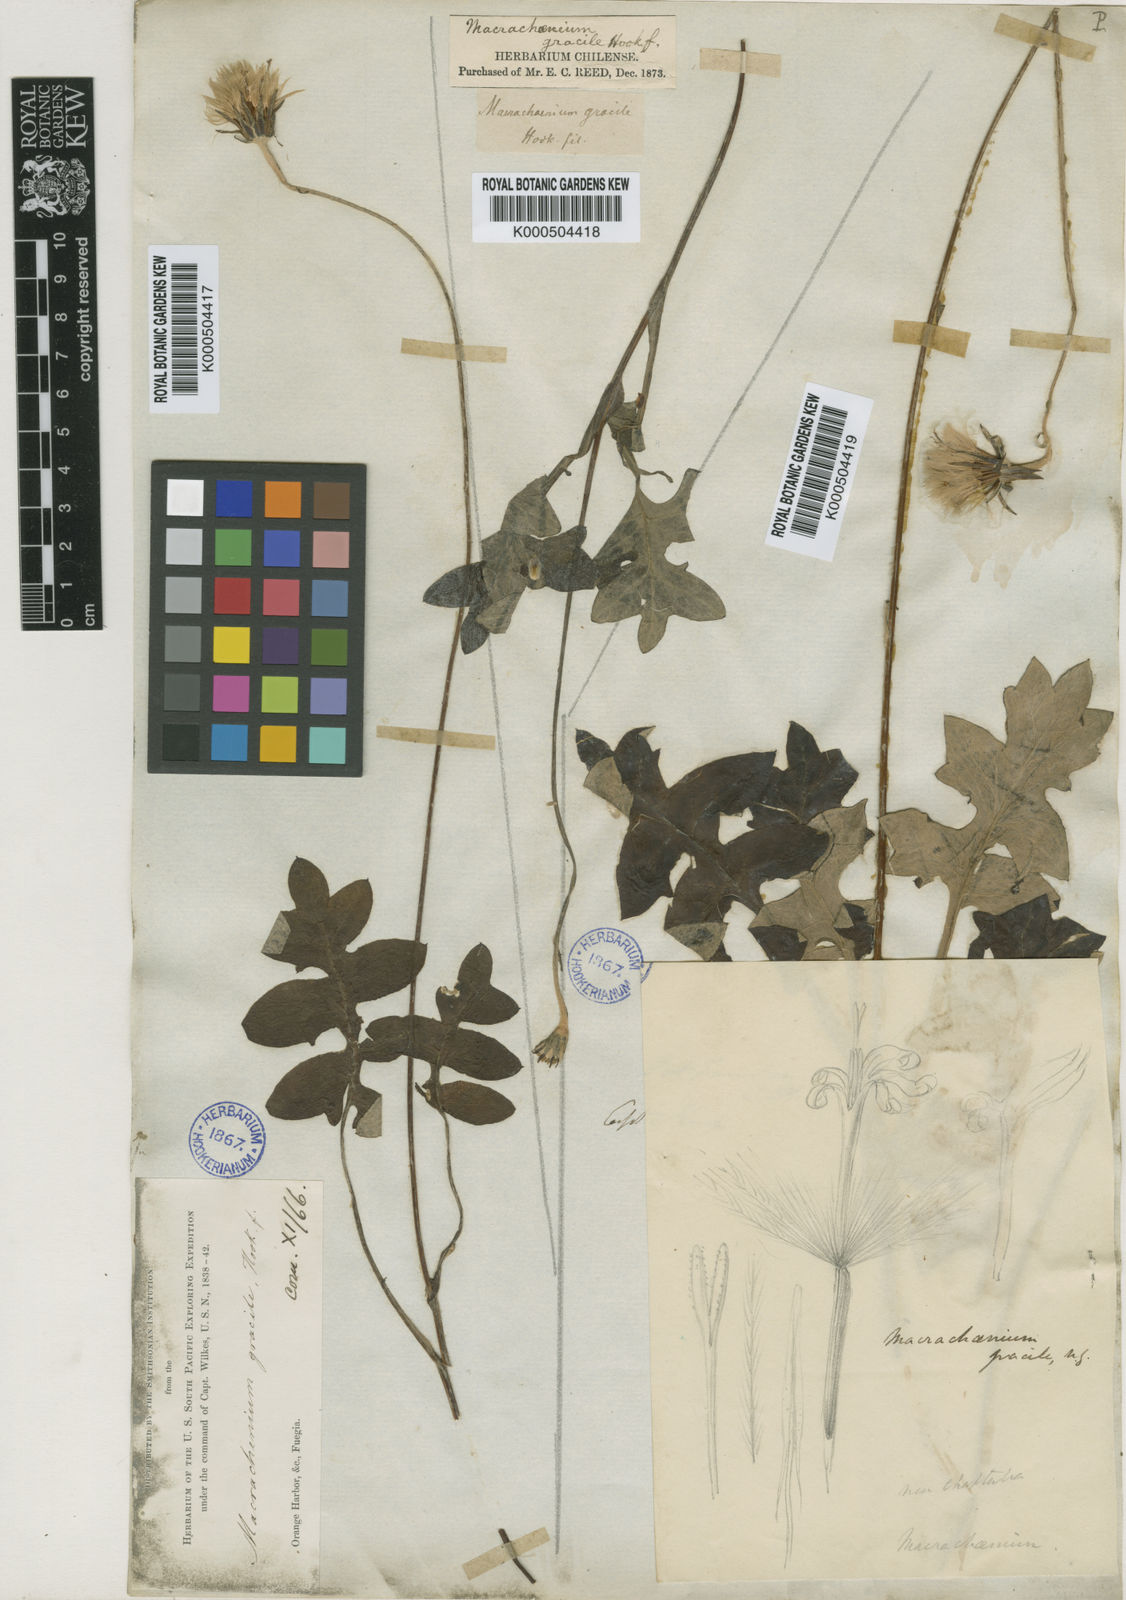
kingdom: Plantae
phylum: Tracheophyta
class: Magnoliopsida
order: Asterales
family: Asteraceae
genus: Macrachaenium
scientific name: Macrachaenium gracile
